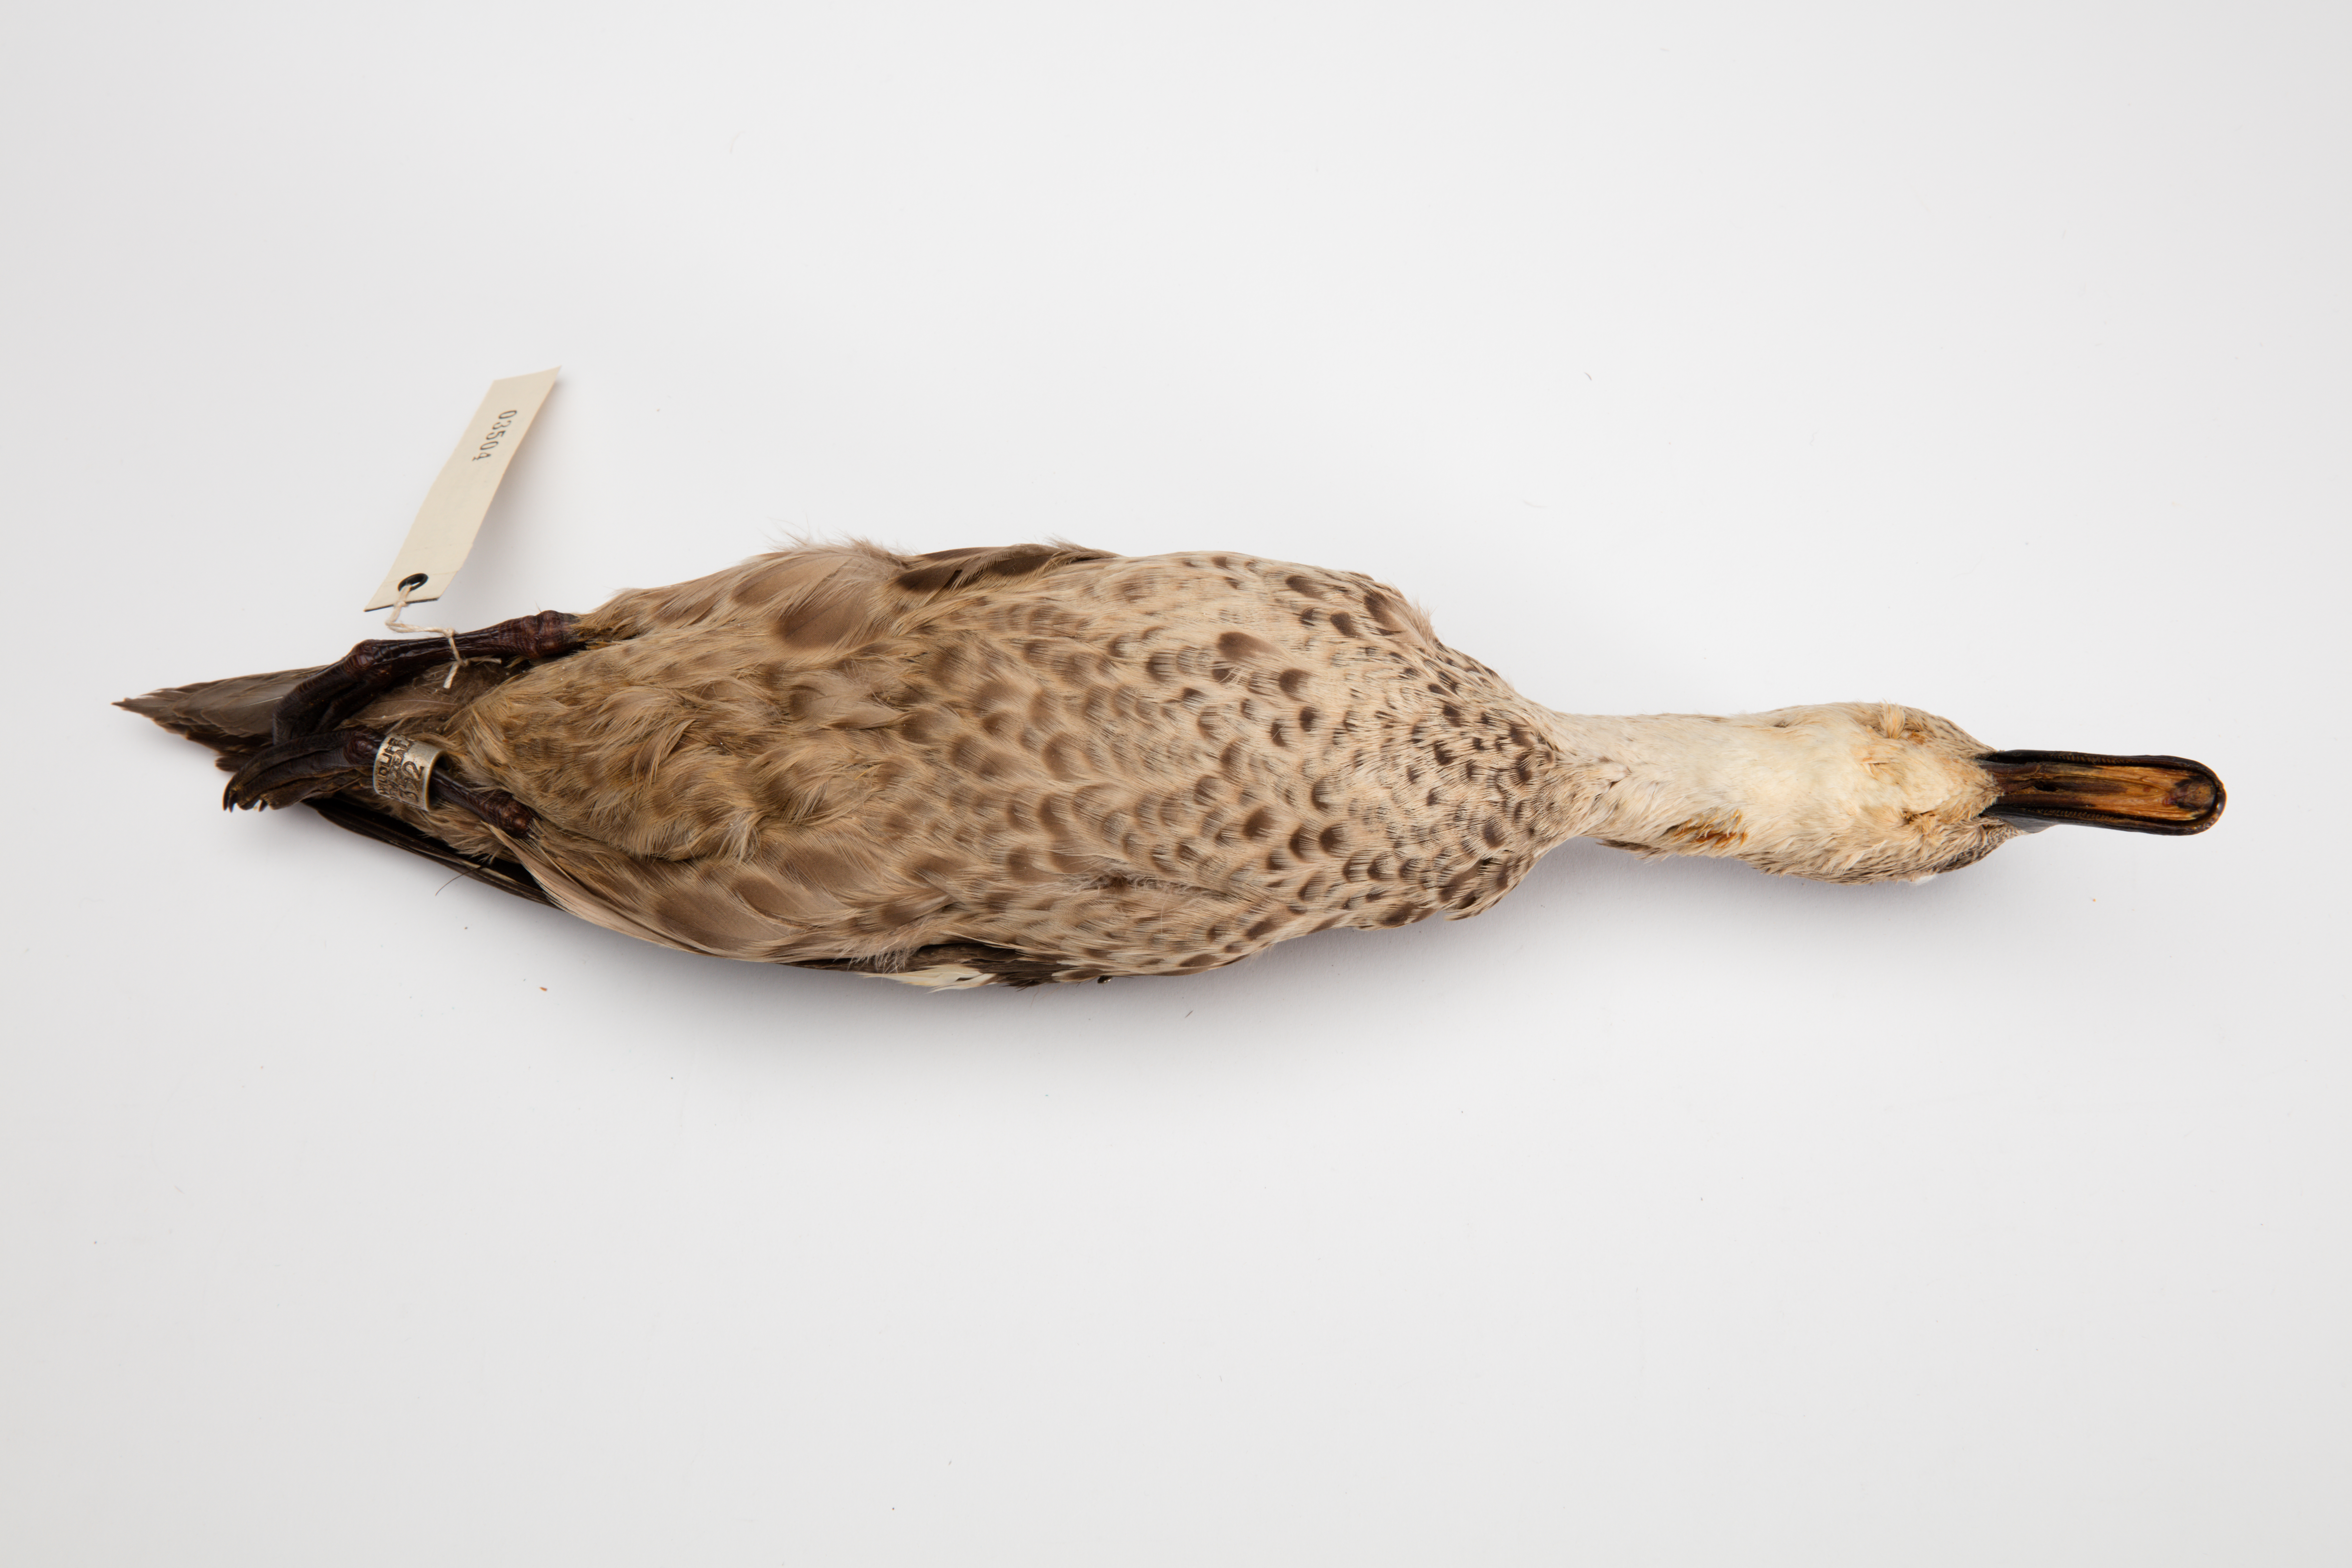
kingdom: Animalia
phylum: Chordata
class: Aves
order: Anseriformes
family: Anatidae
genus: Anas
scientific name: Anas gracilis
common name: Grey teal
